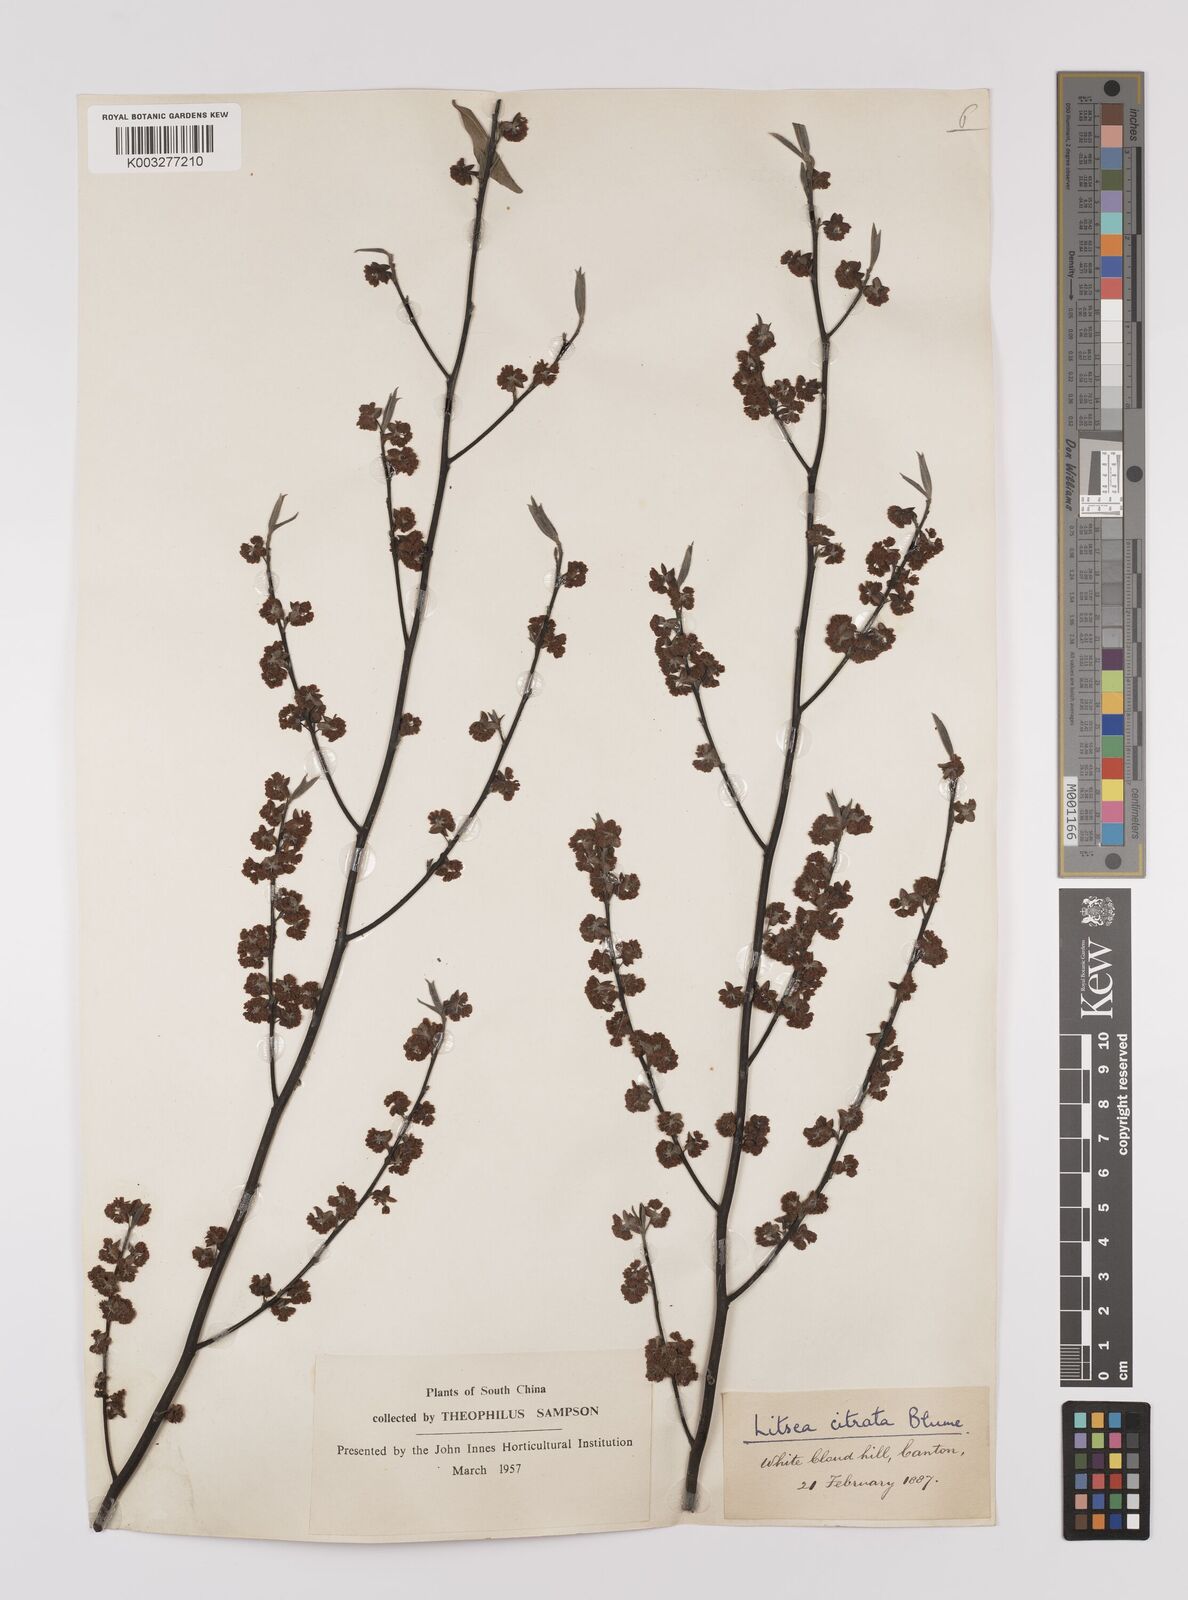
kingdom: Plantae
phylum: Tracheophyta
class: Magnoliopsida
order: Laurales
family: Lauraceae
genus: Litsea
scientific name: Litsea cubeba
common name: Mountain-pepper
